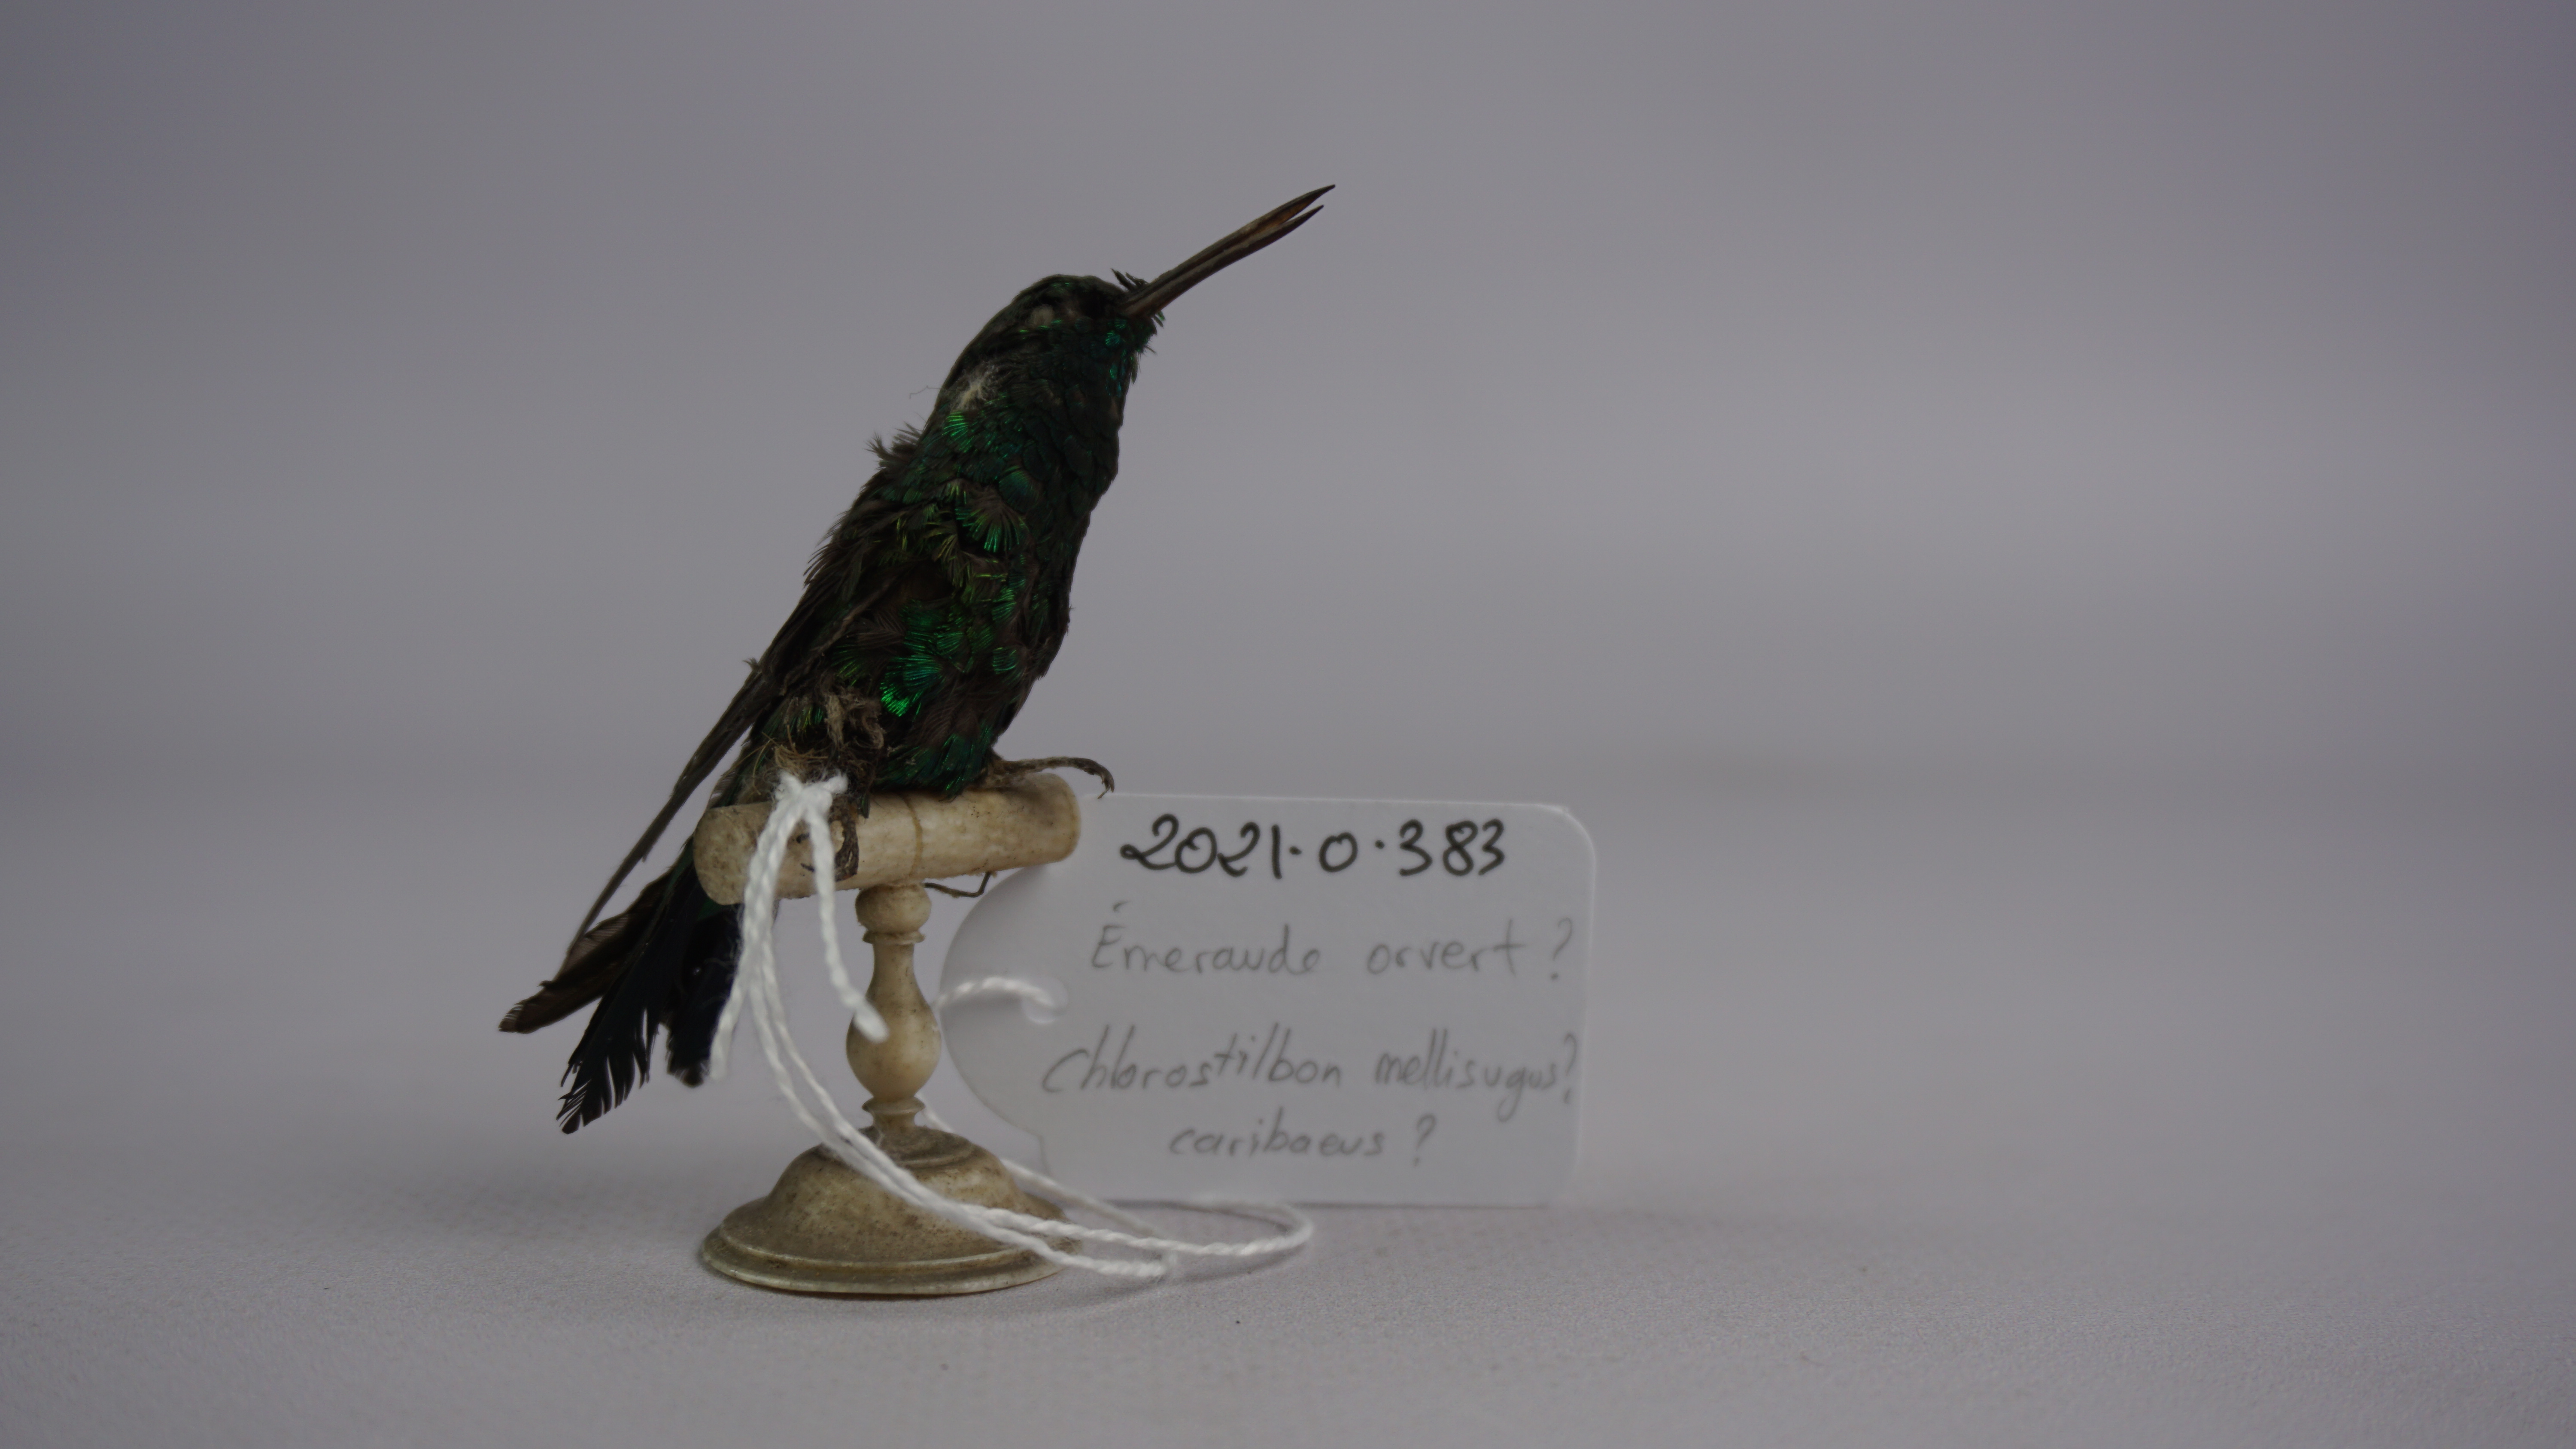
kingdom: Animalia
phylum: Chordata
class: Aves
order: Apodiformes
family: Trochilidae
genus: Chlorostilbon
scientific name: Chlorostilbon mellisugus
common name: Blue-tailed emerald
